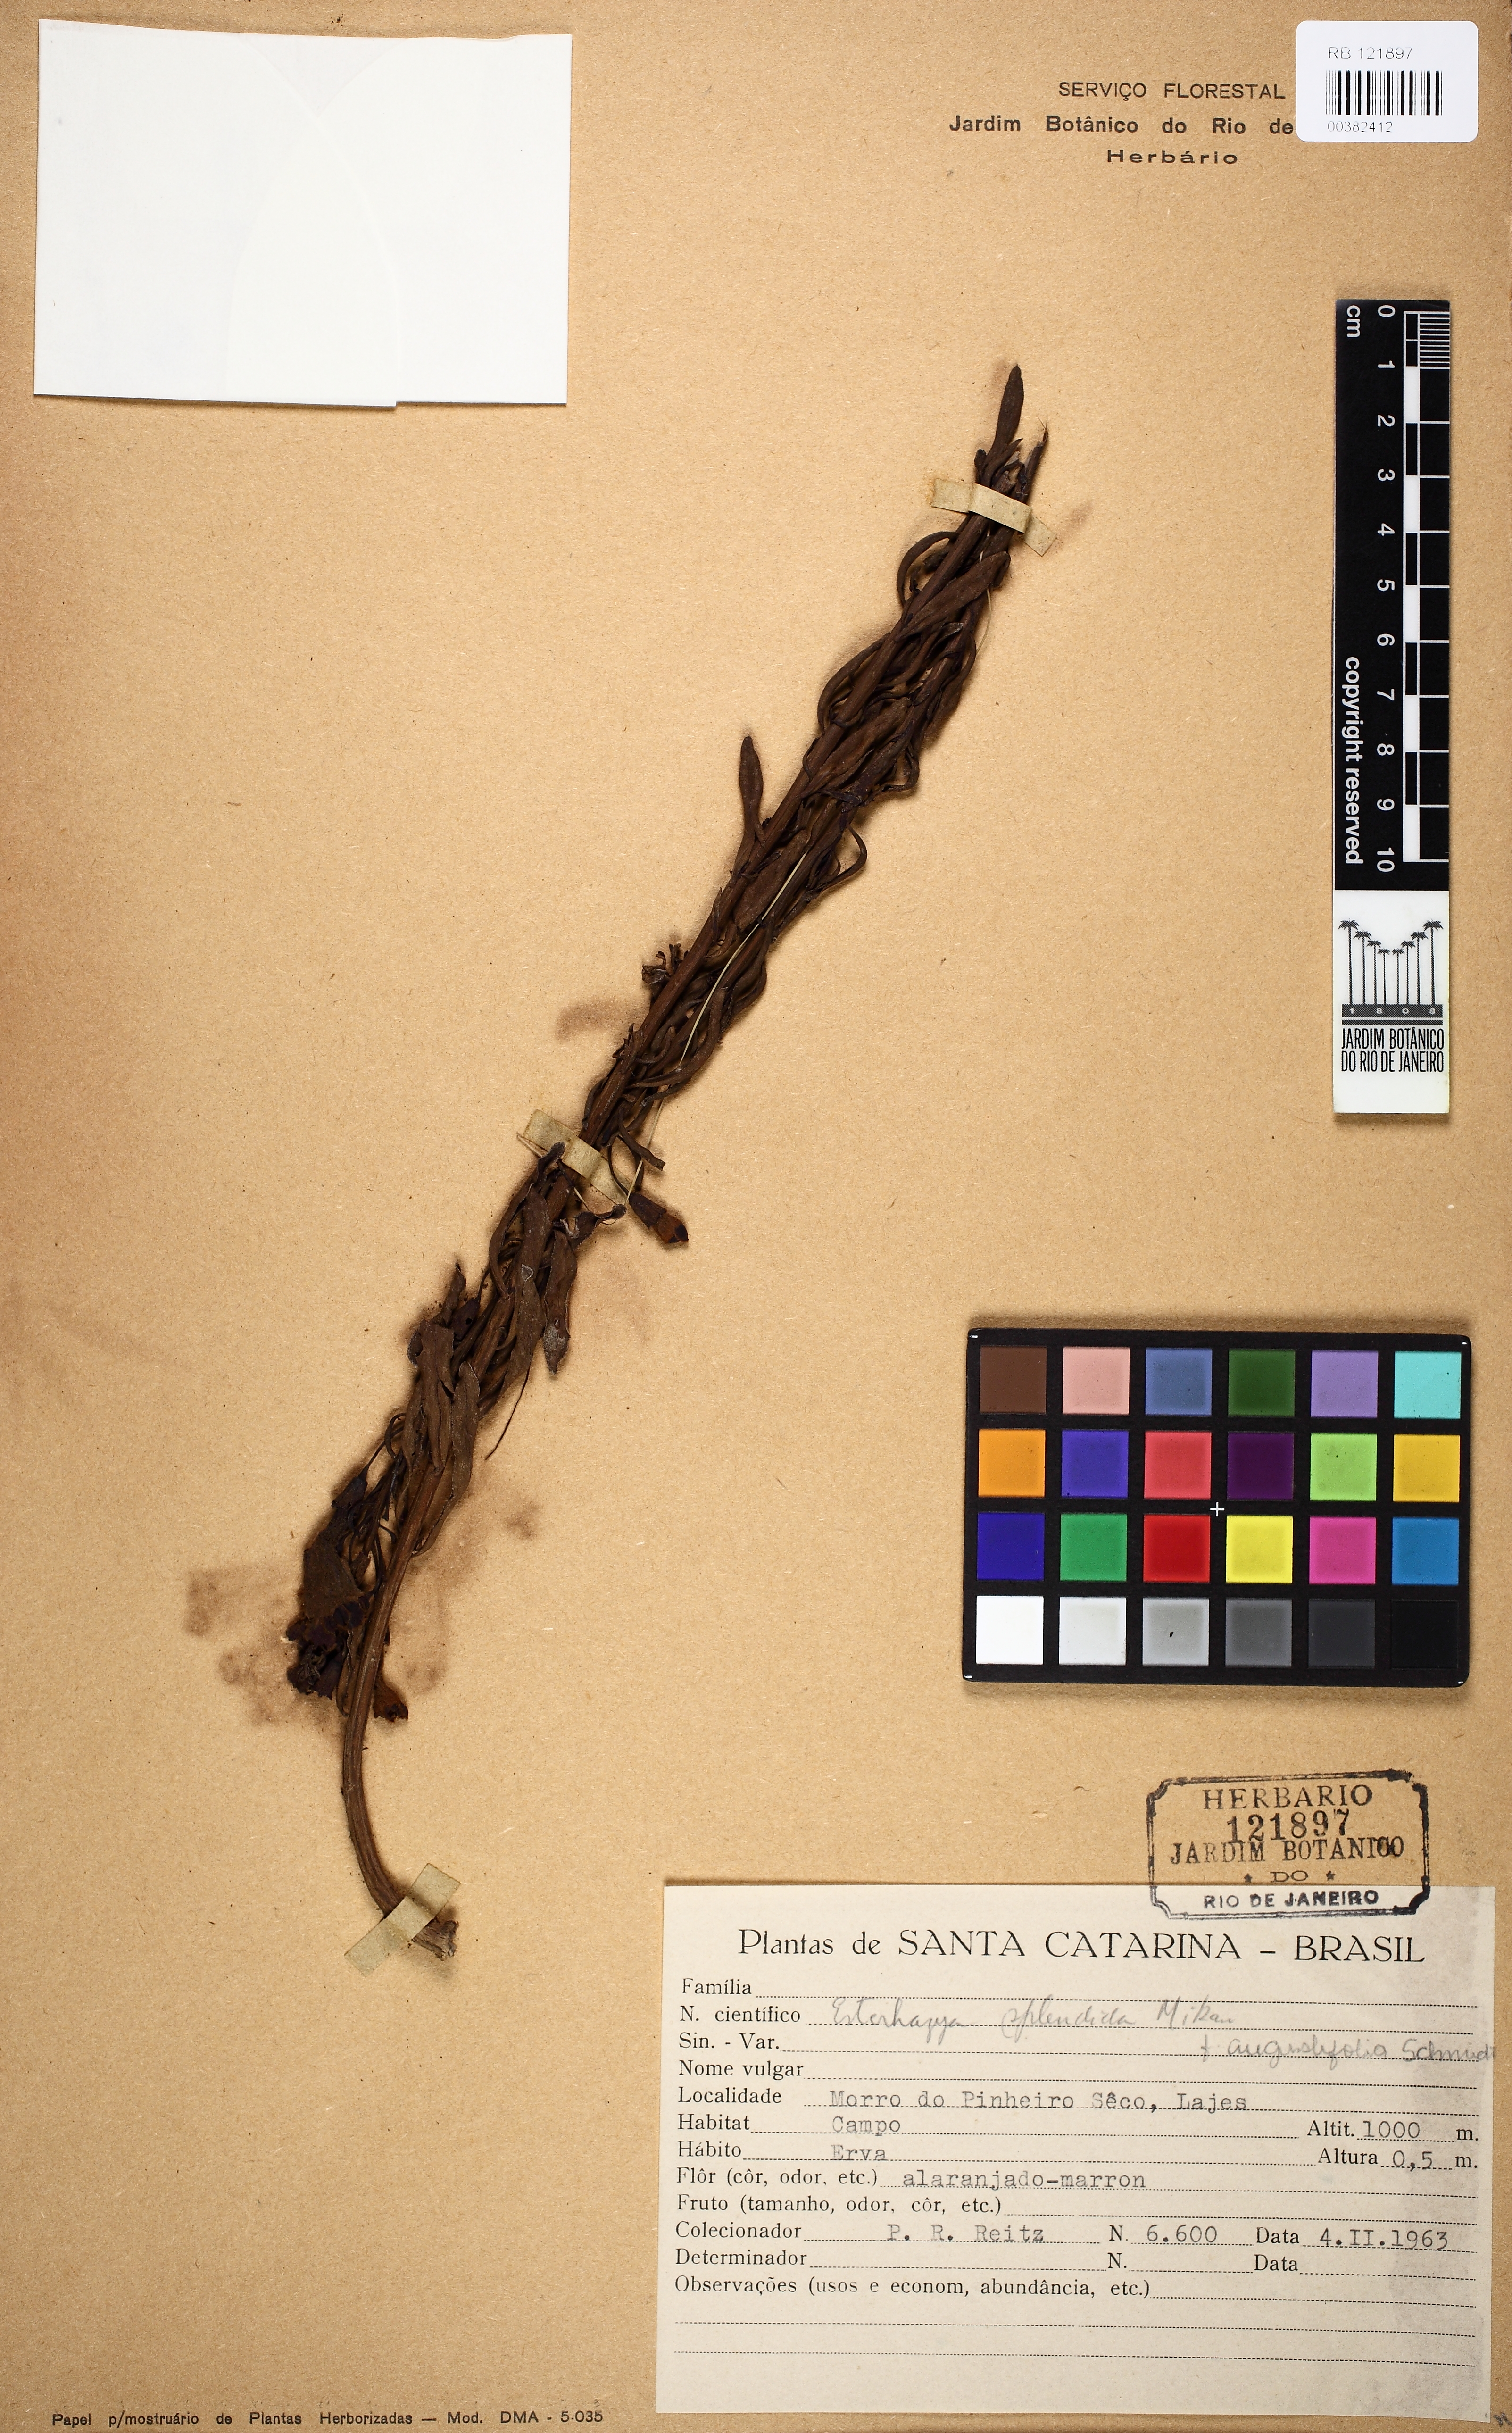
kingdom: Plantae
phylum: Tracheophyta
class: Magnoliopsida
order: Lamiales
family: Orobanchaceae
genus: Esterhazya
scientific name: Esterhazya splendida
